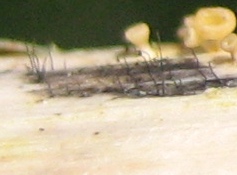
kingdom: Fungi
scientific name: Fungi
